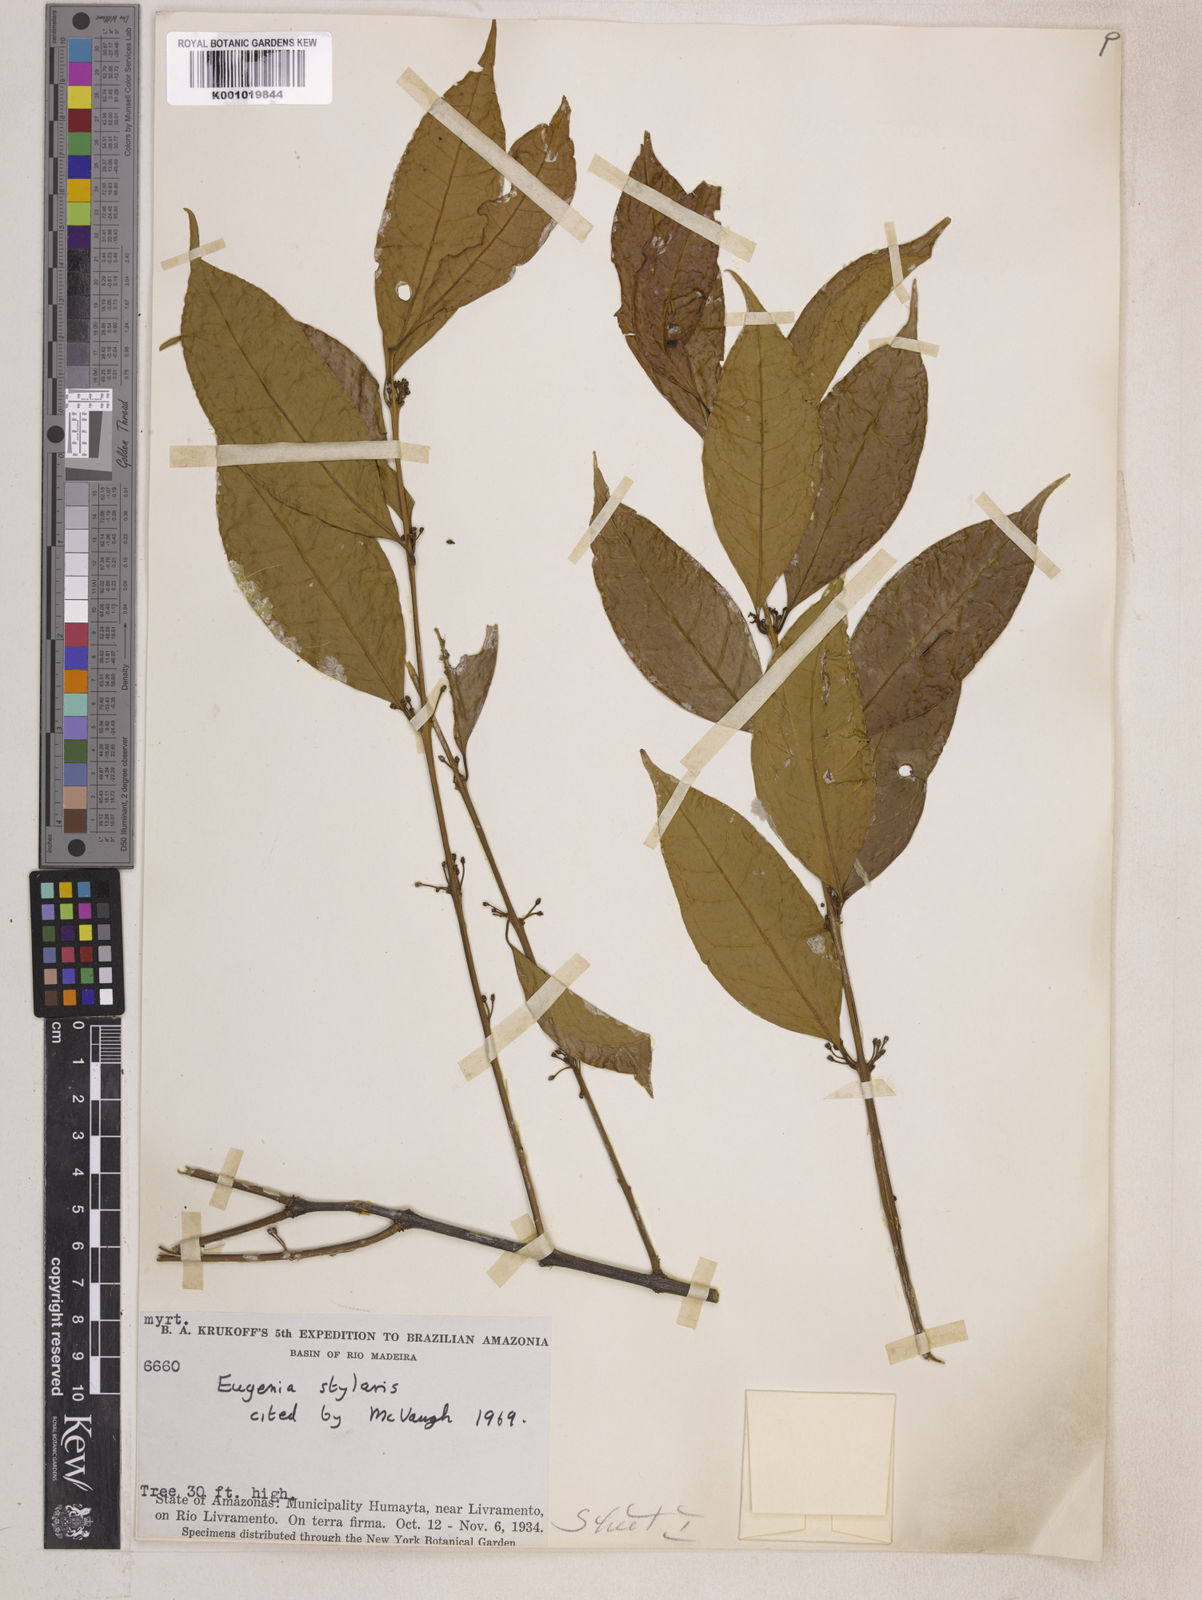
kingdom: Plantae
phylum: Tracheophyta
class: Magnoliopsida
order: Myrtales
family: Myrtaceae
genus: Eugenia
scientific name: Eugenia stylaris
